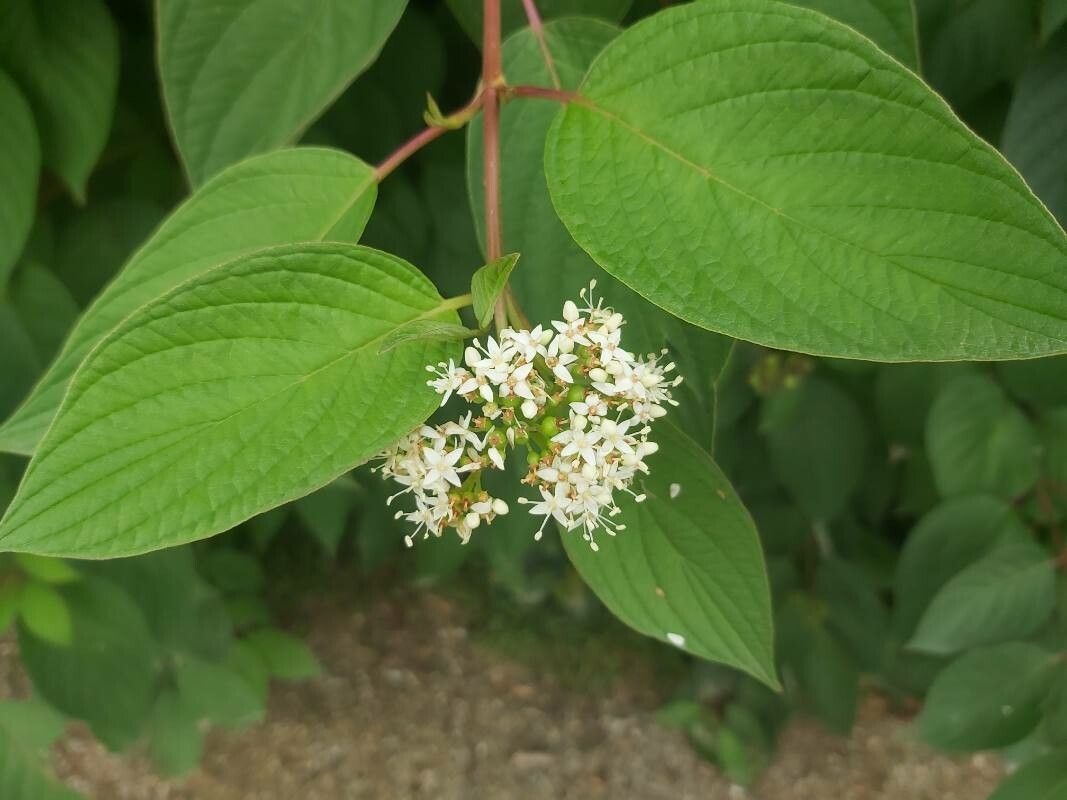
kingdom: Plantae
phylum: Tracheophyta
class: Magnoliopsida
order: Cornales
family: Cornaceae
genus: Cornus
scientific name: Cornus sericea
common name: Krybende kornel
